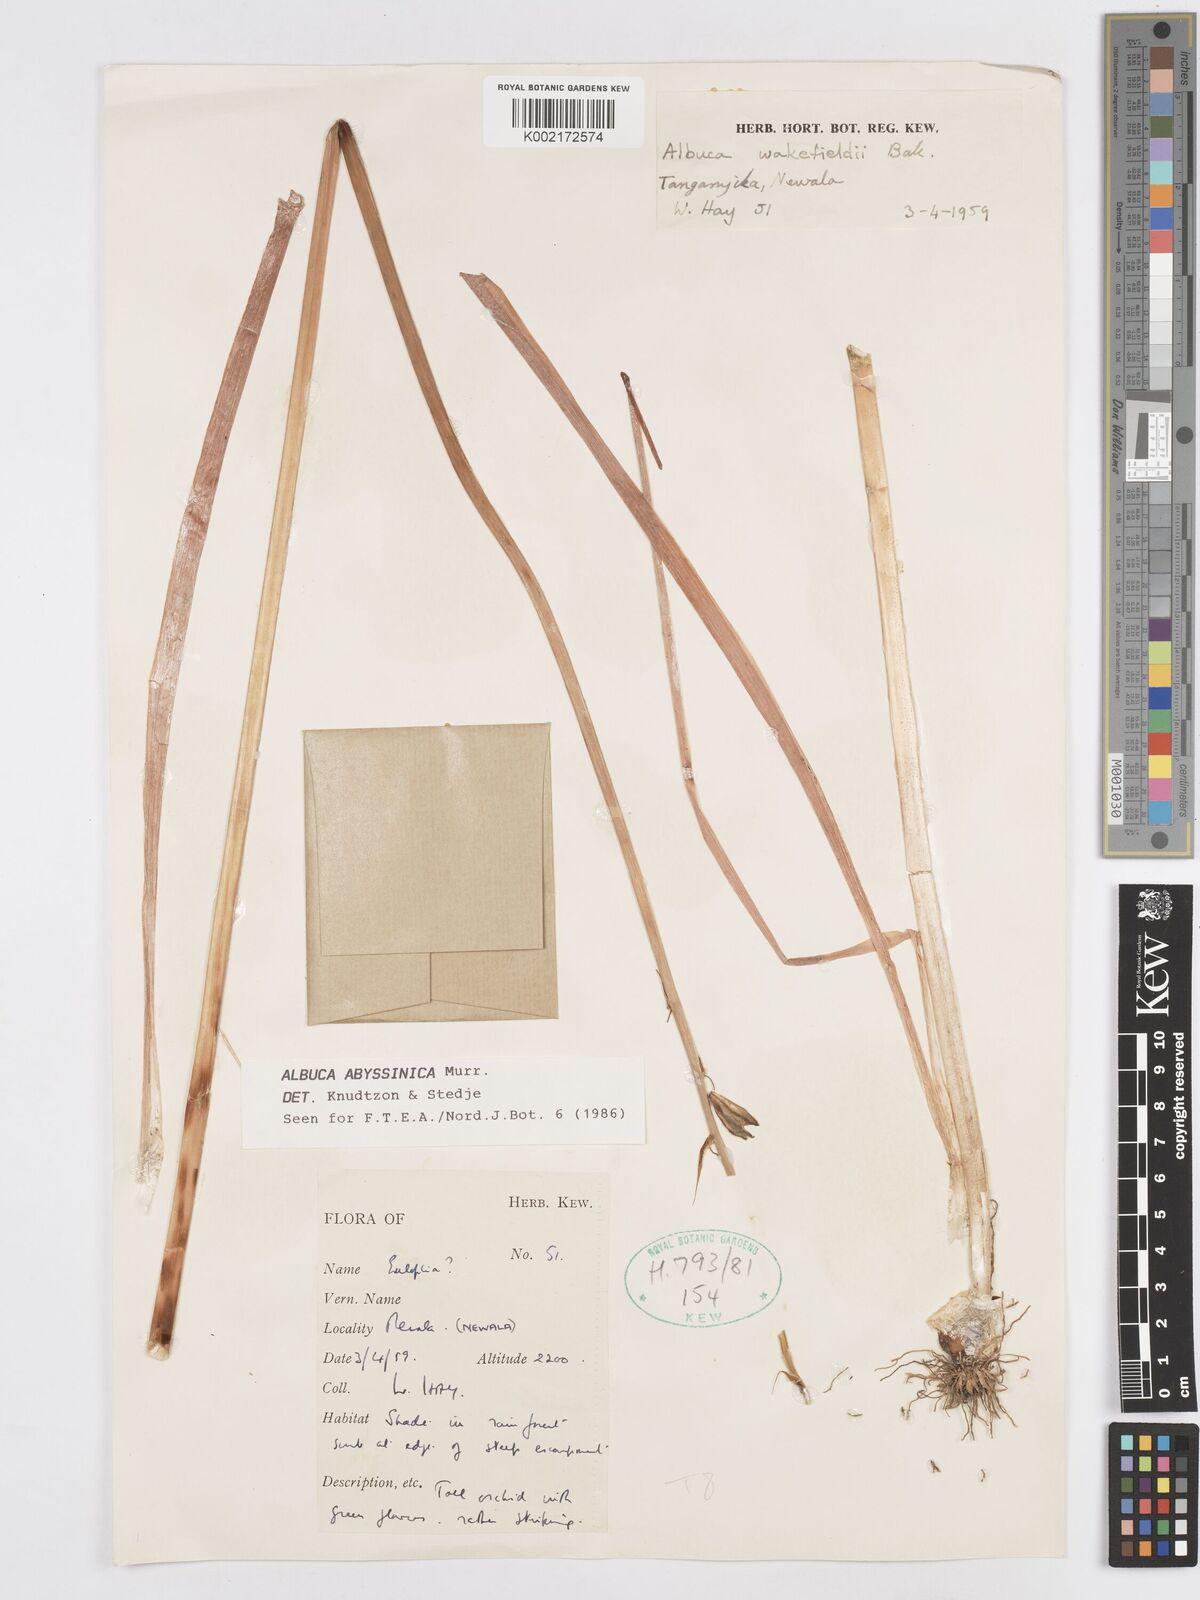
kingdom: Plantae
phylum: Tracheophyta
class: Liliopsida
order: Asparagales
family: Asparagaceae
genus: Albuca
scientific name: Albuca abyssinica
